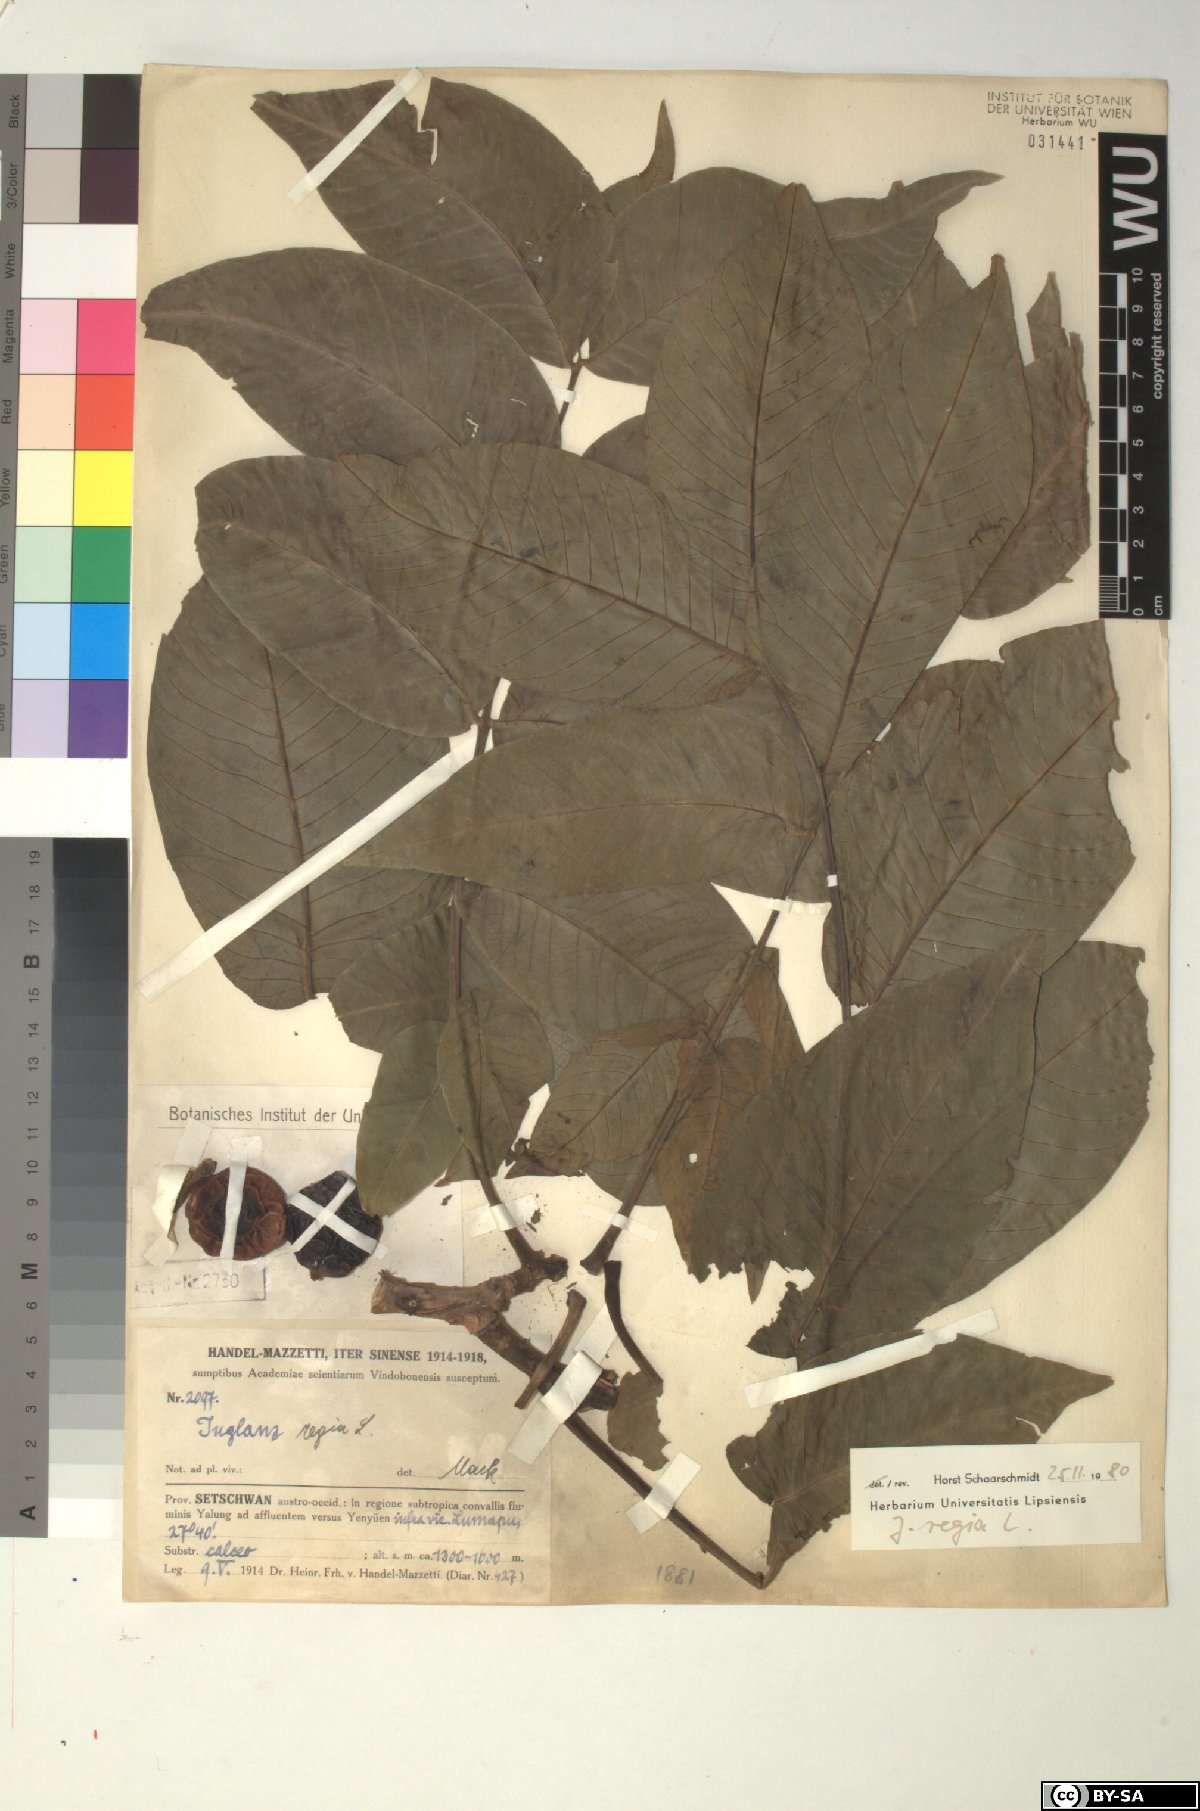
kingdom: Plantae
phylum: Tracheophyta
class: Magnoliopsida
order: Fagales
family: Juglandaceae
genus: Juglans
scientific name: Juglans regia
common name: Walnut
